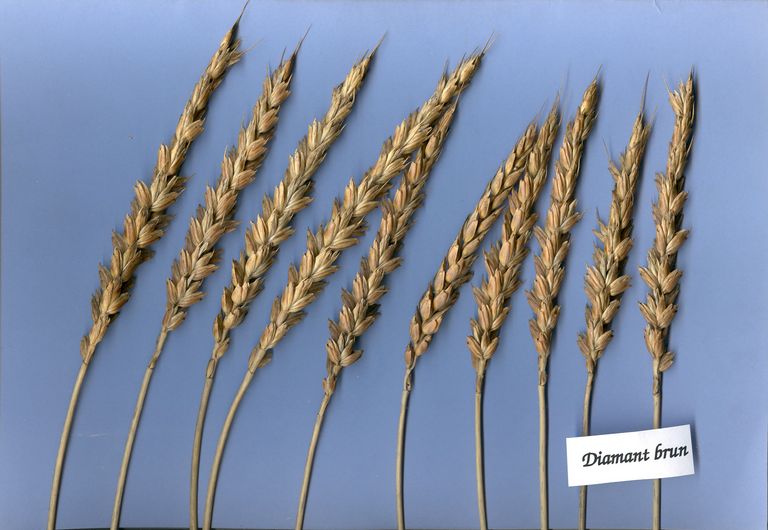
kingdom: Plantae
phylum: Tracheophyta
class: Liliopsida
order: Poales
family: Poaceae
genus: Triticum
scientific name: Triticum aestivum
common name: Common wheat
